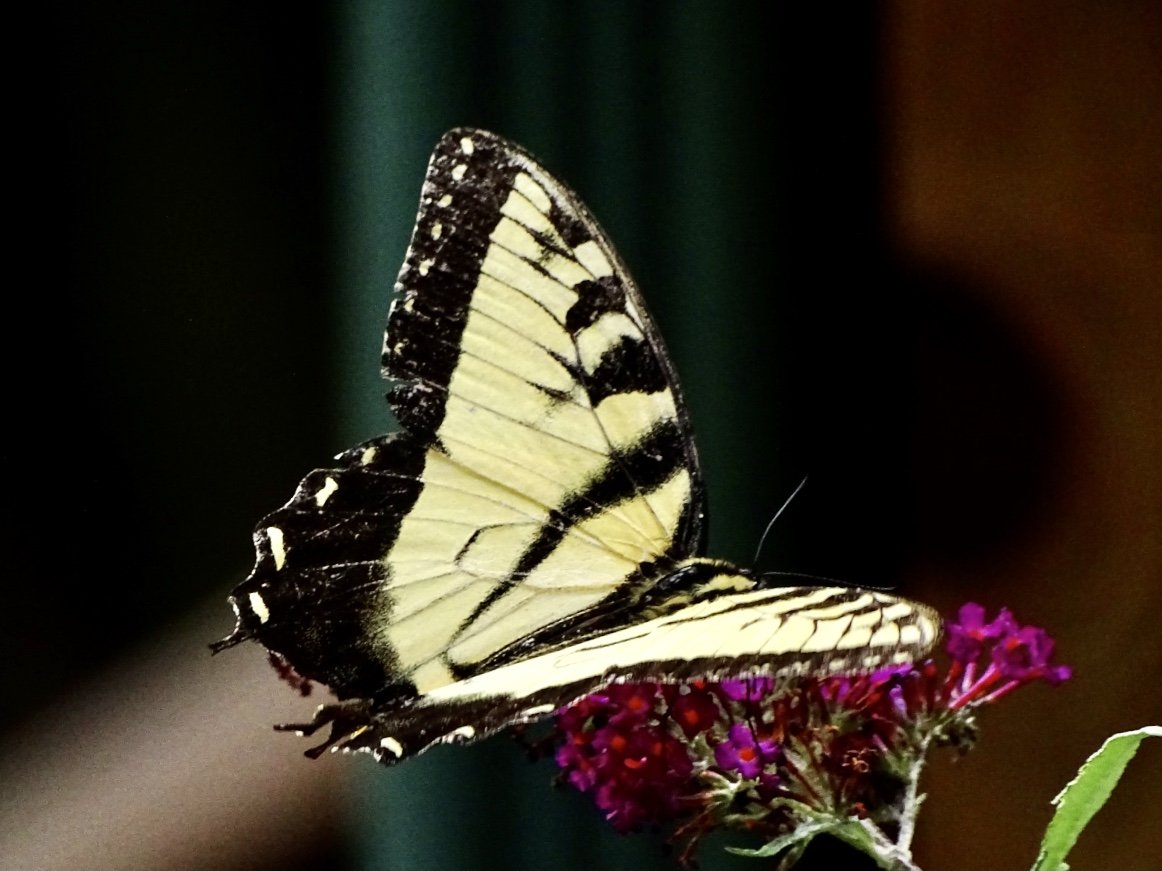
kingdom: Animalia
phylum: Arthropoda
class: Insecta
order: Lepidoptera
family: Papilionidae
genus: Pterourus
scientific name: Pterourus glaucus
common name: Eastern Tiger Swallowtail
